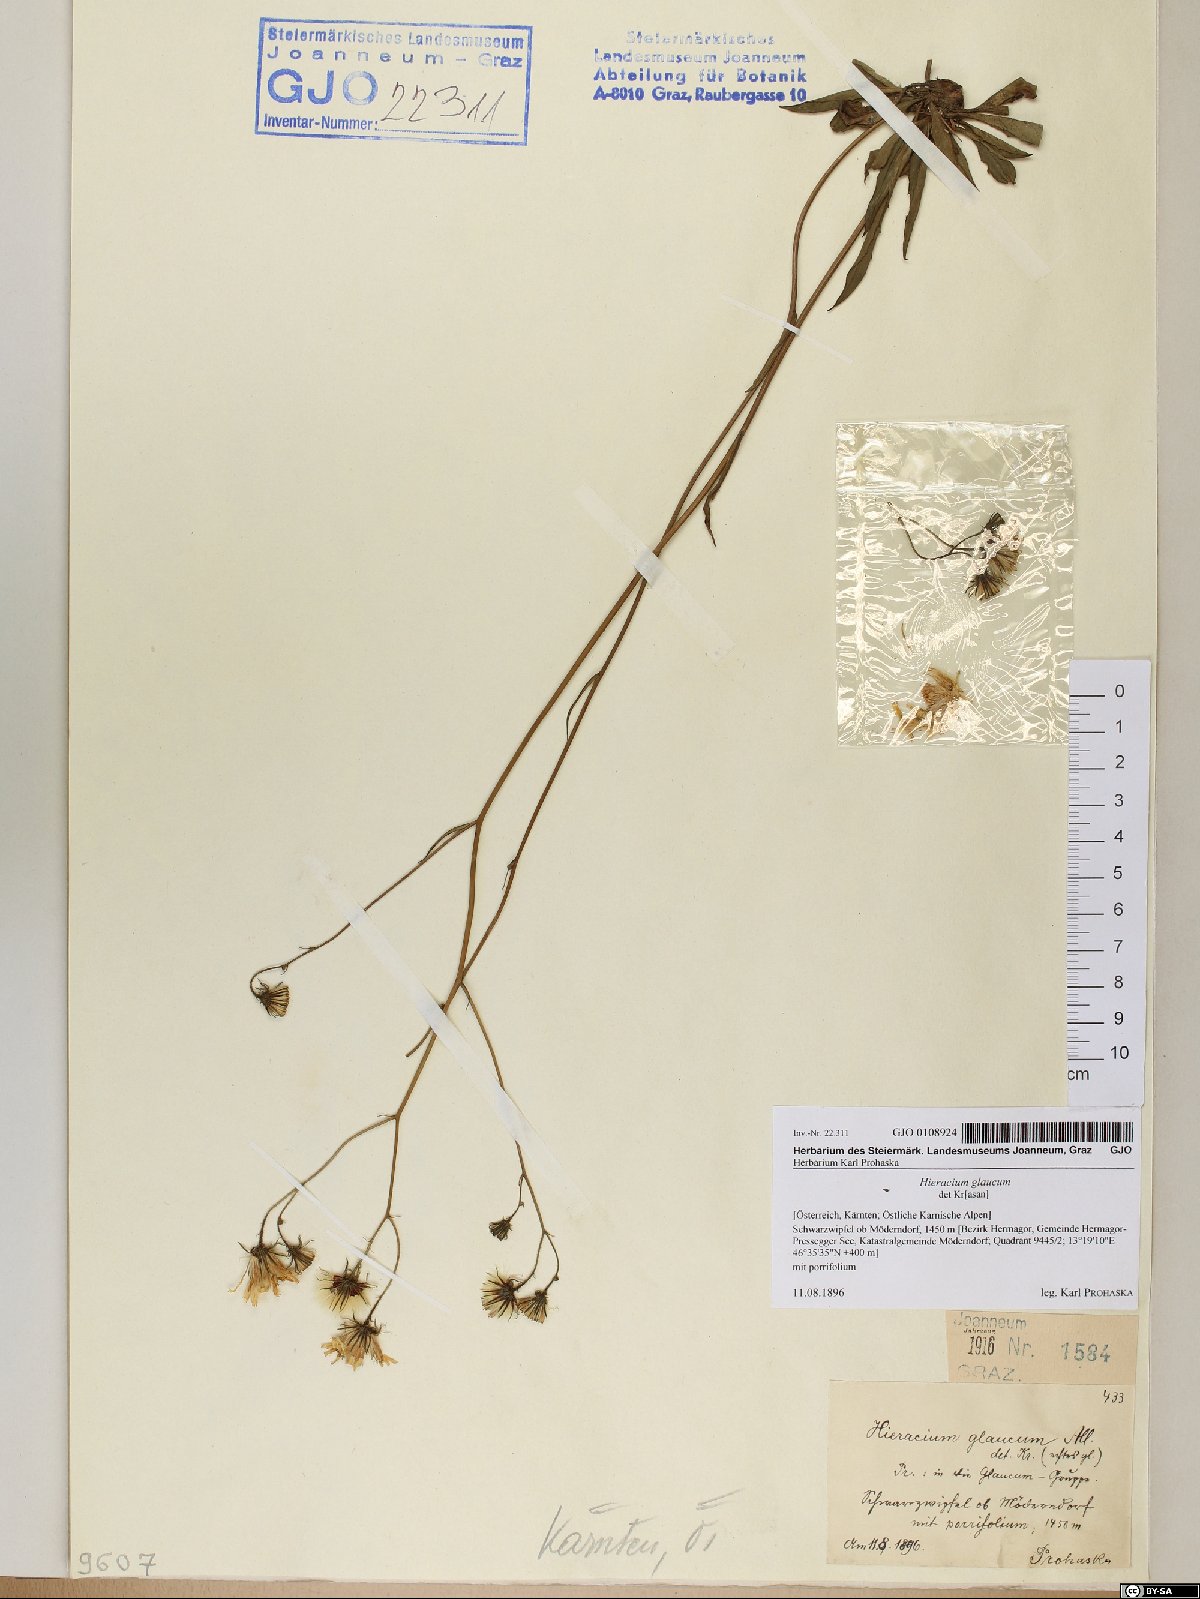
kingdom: Plantae
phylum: Tracheophyta
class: Magnoliopsida
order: Asterales
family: Asteraceae
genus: Hieracium
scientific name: Hieracium glaucum
